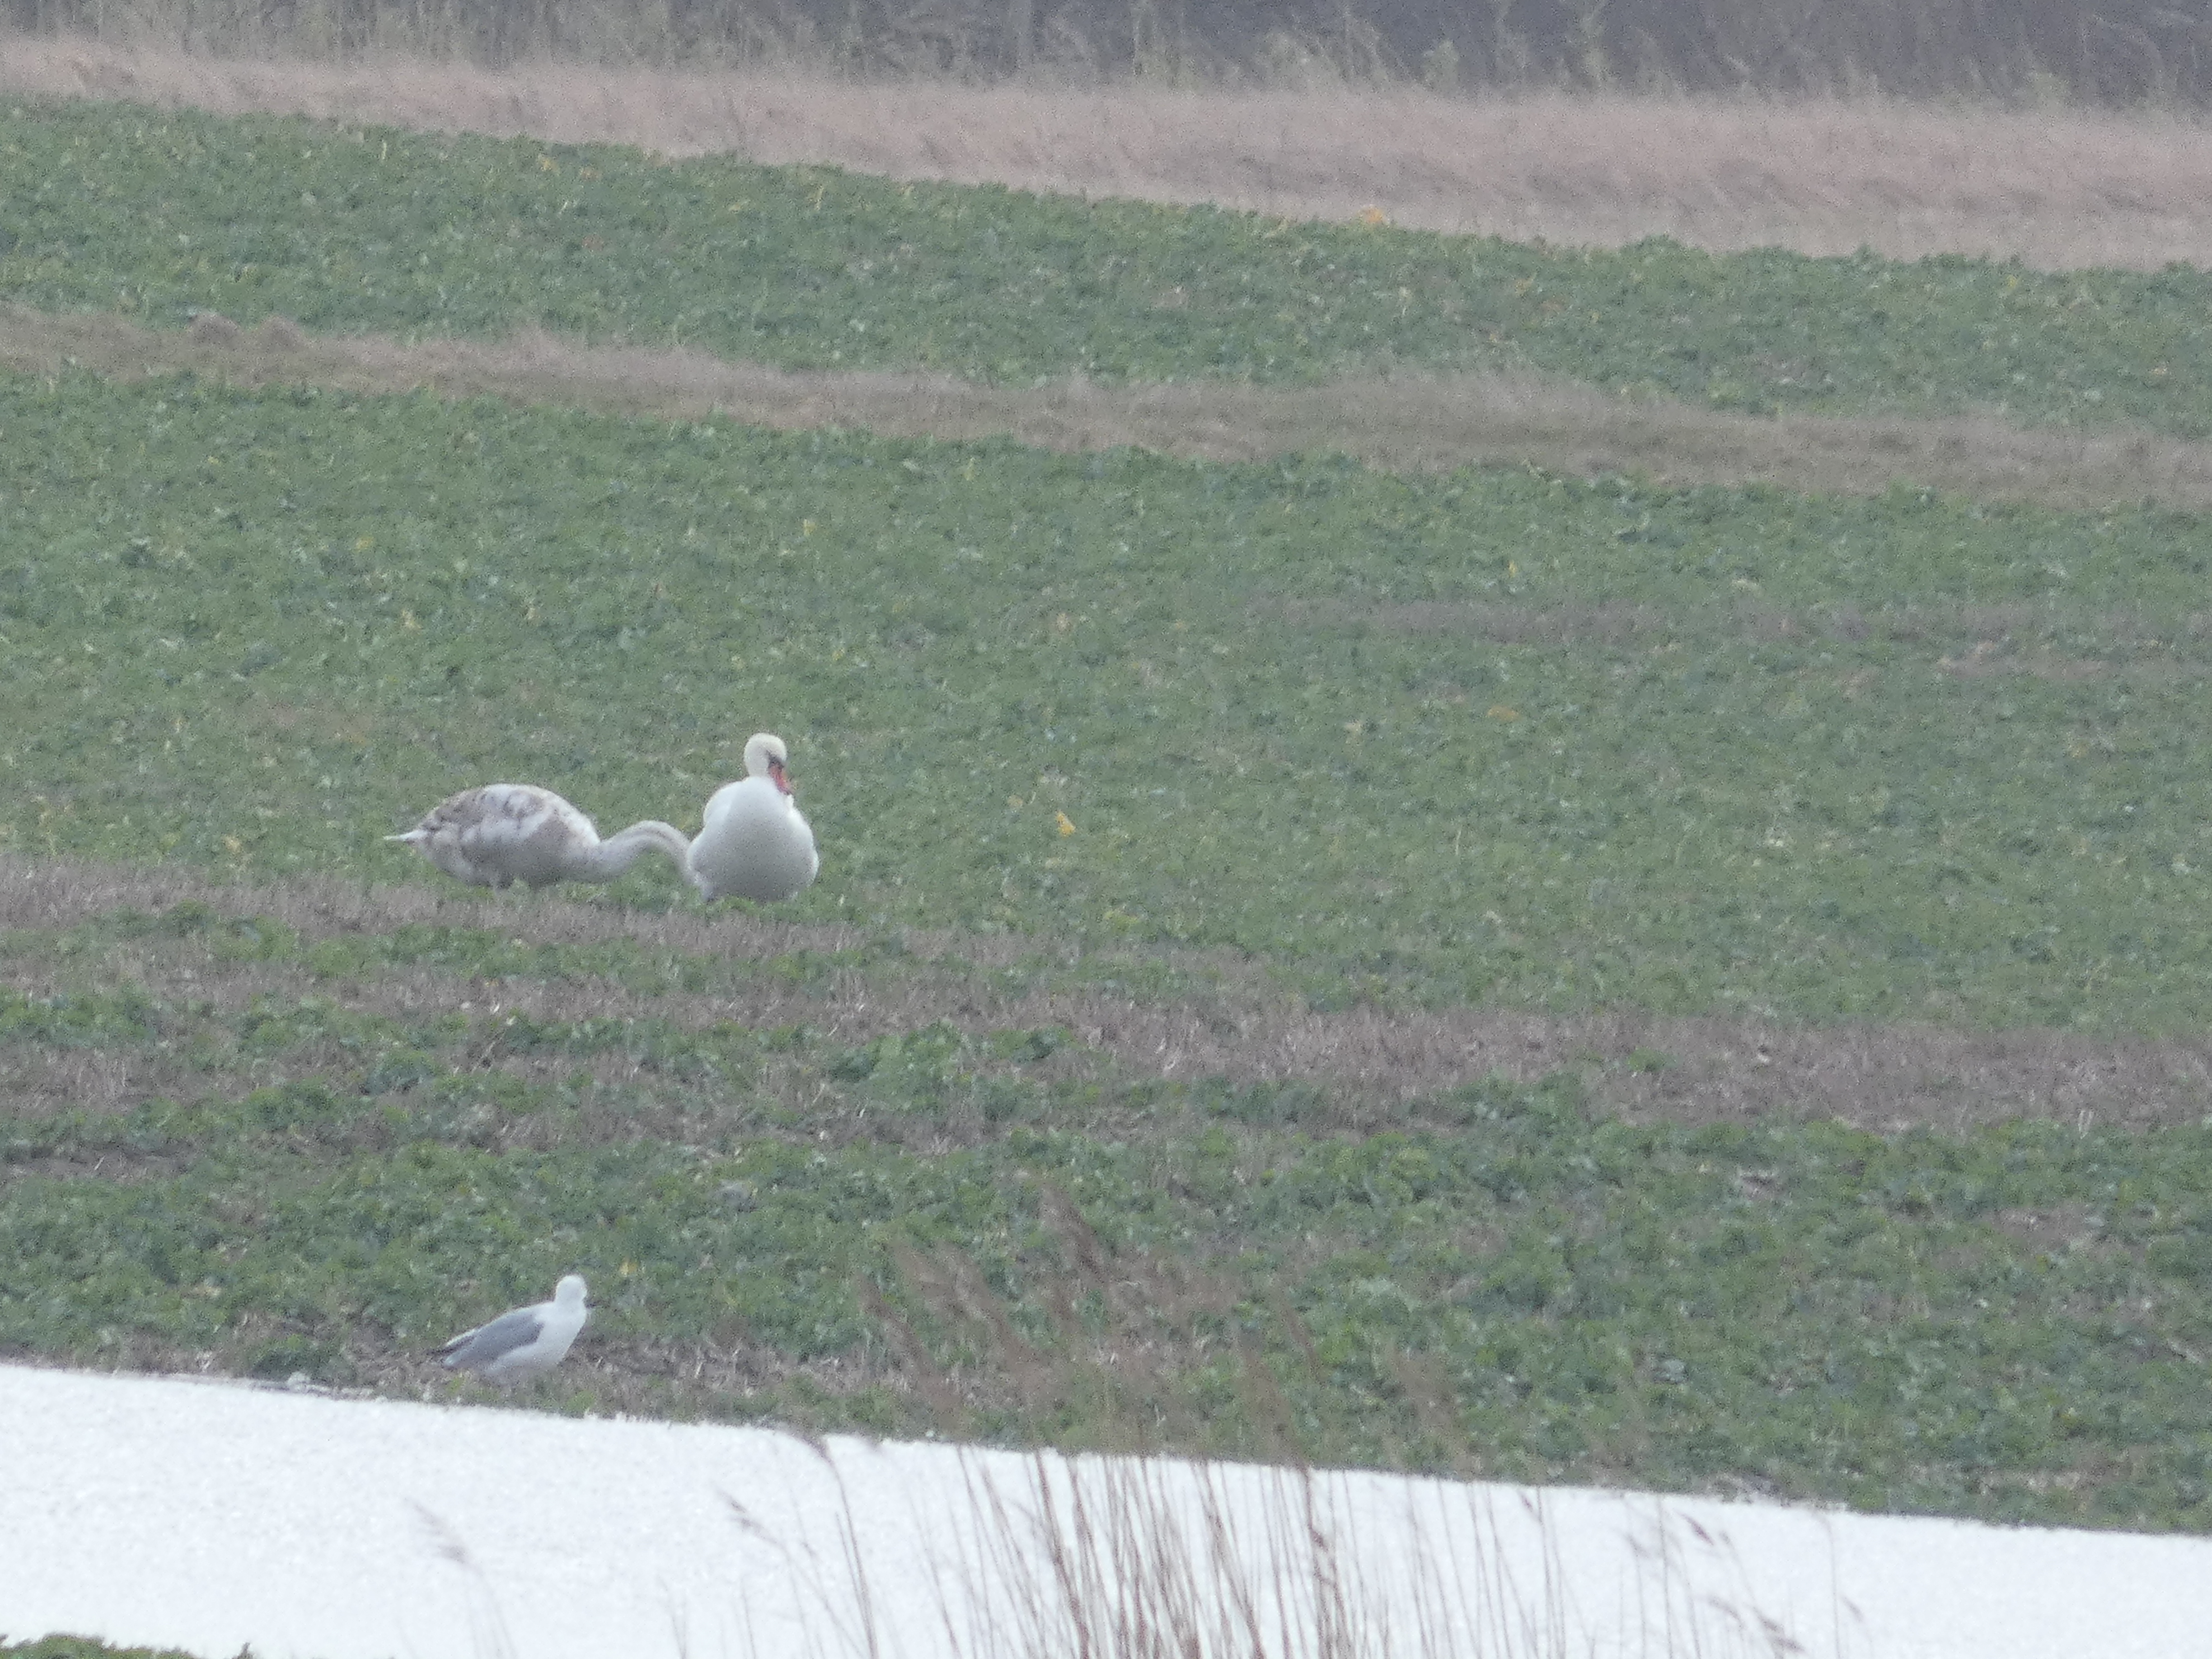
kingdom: Animalia
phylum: Chordata
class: Aves
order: Anseriformes
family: Anatidae
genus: Cygnus
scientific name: Cygnus olor
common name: Knopsvane
